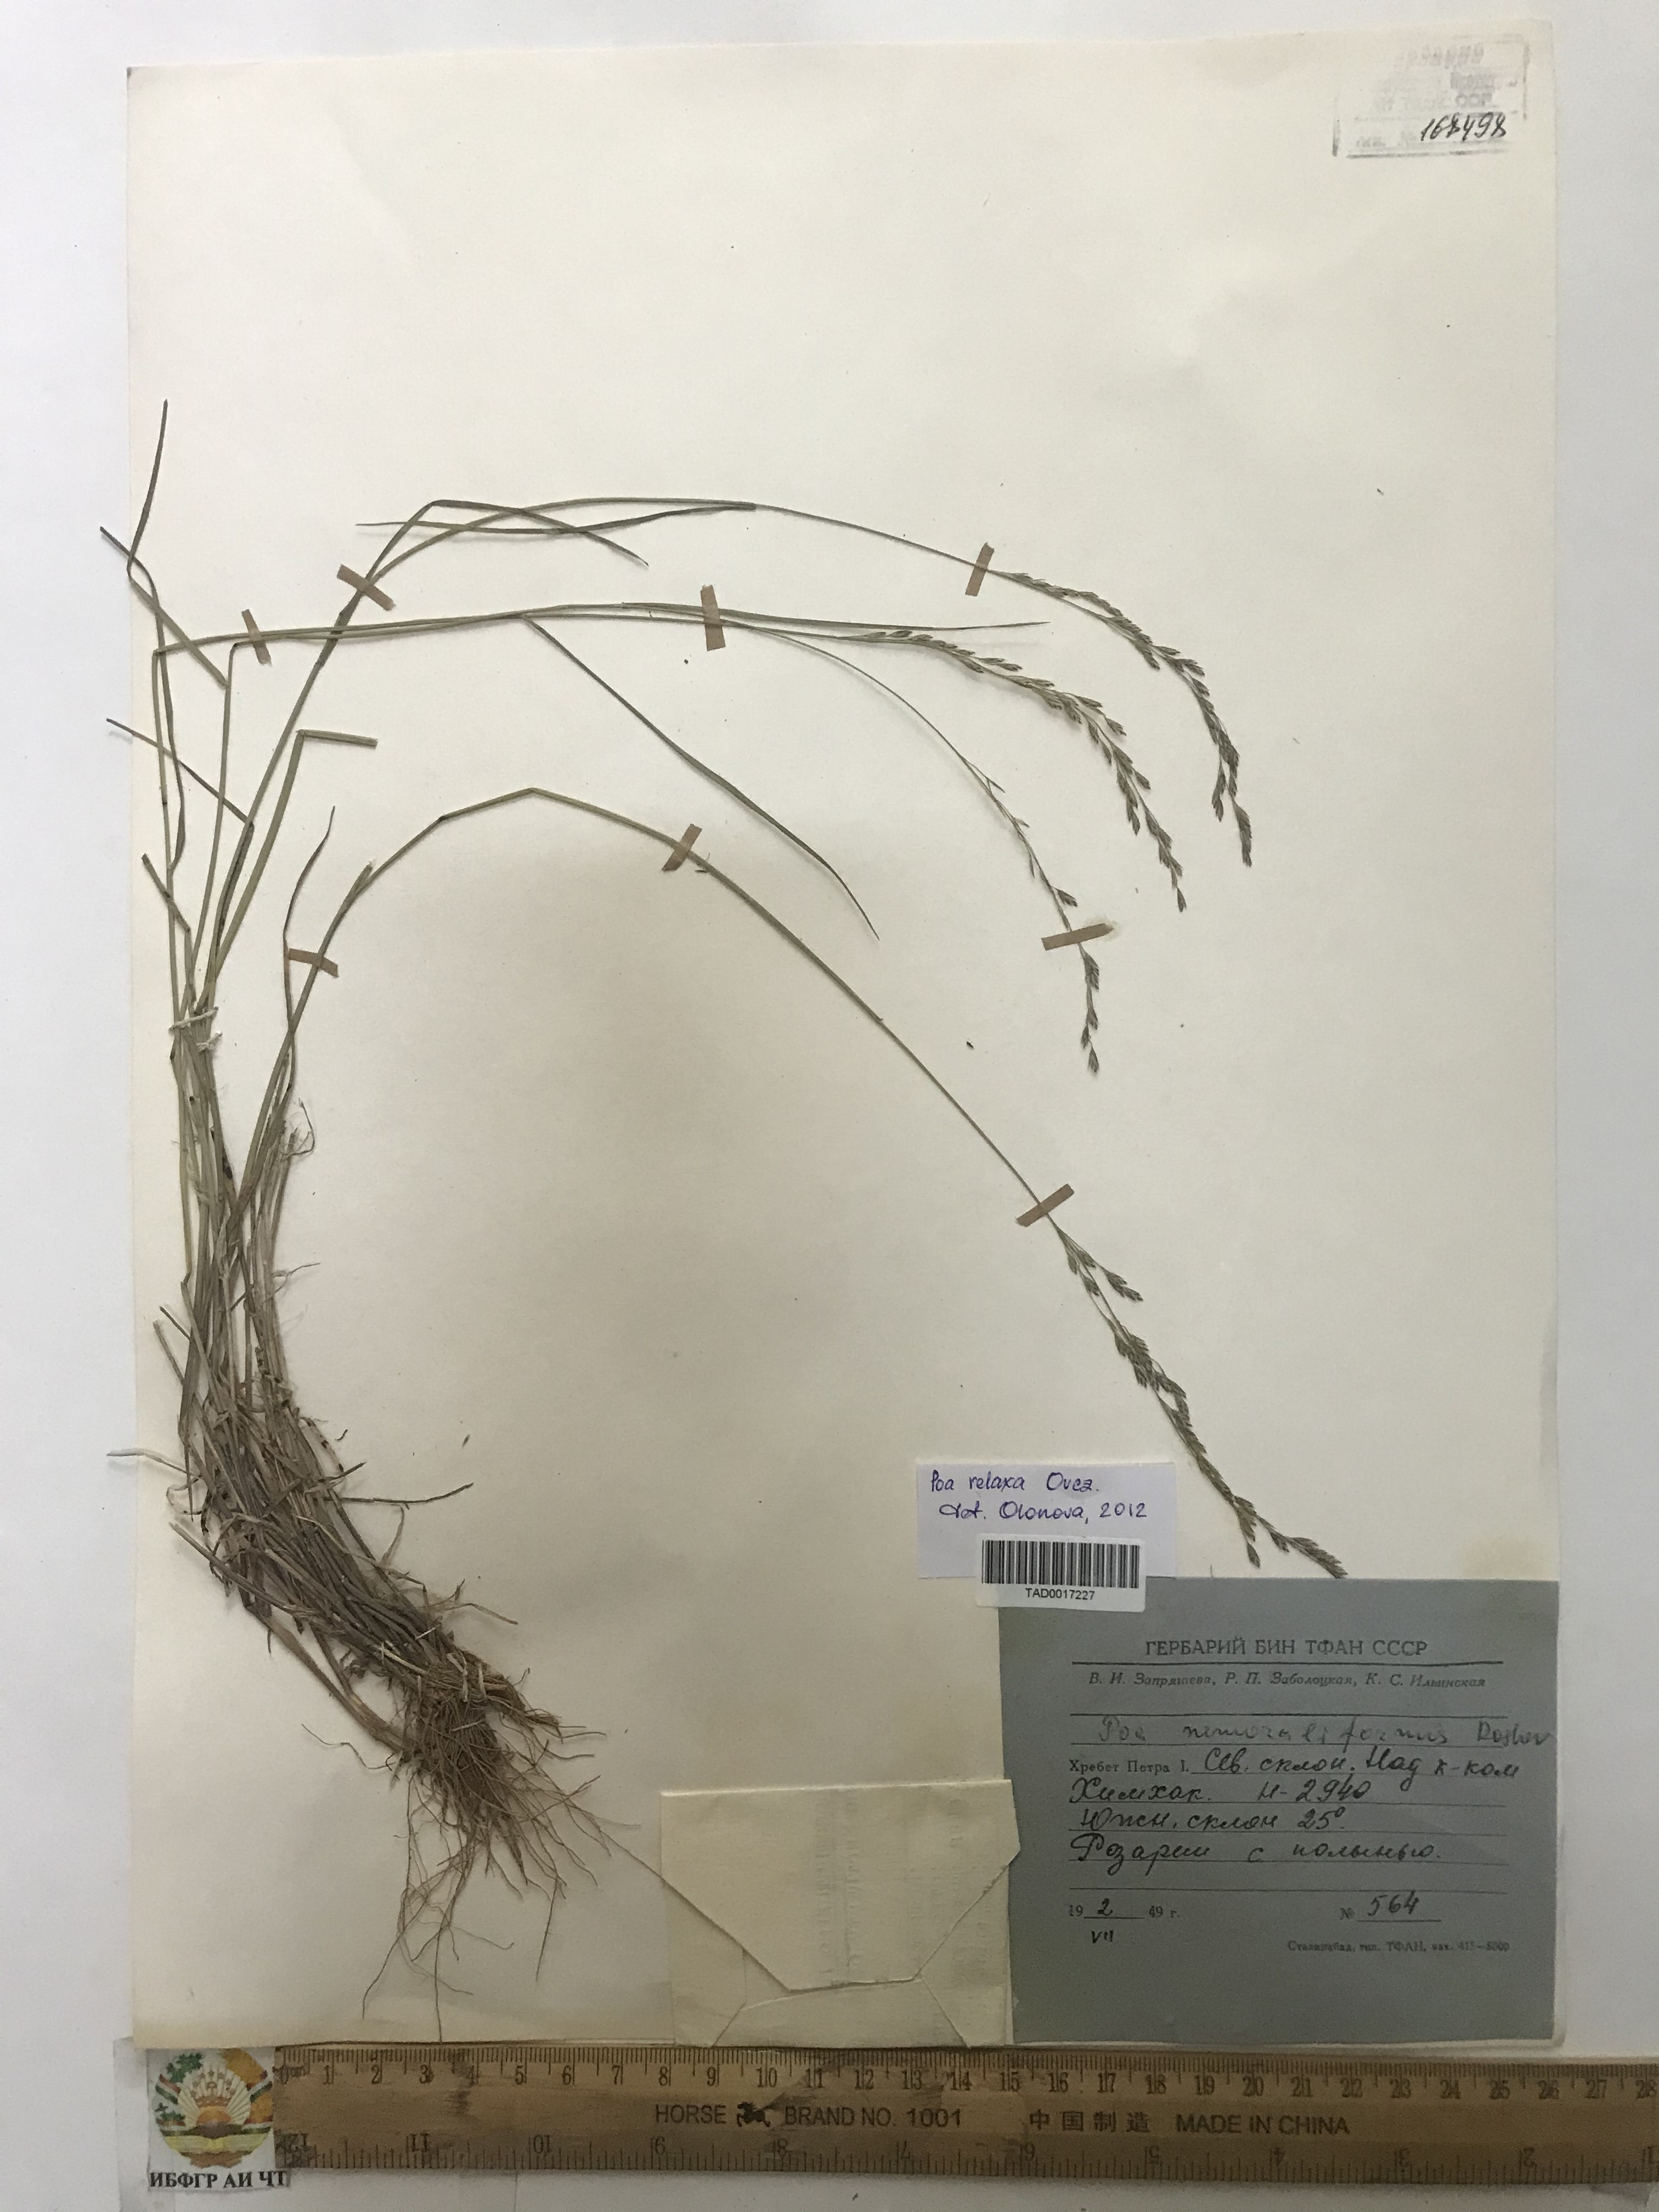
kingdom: Plantae
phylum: Tracheophyta
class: Liliopsida
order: Poales
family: Poaceae
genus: Poa
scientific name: Poa versicolor
